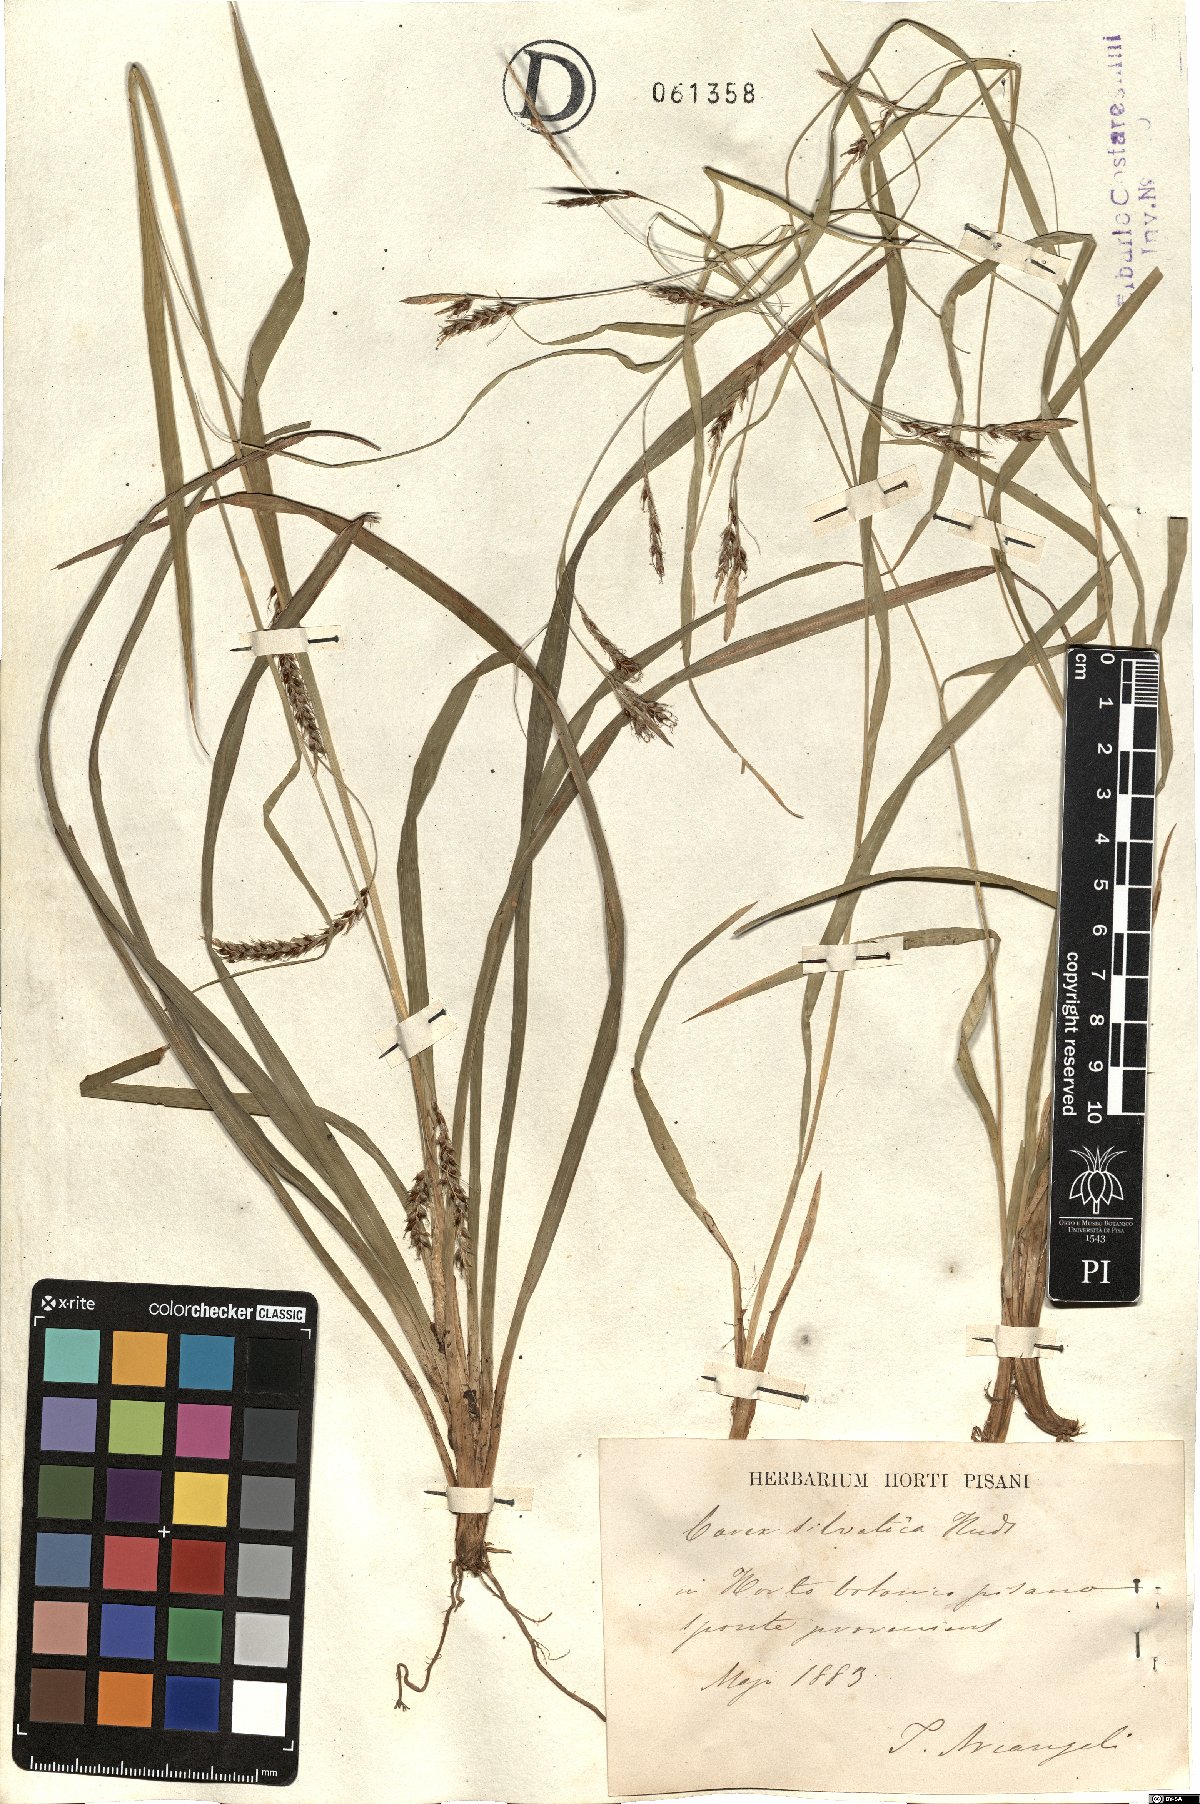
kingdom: Plantae
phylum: Tracheophyta
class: Liliopsida
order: Poales
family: Cyperaceae
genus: Carex
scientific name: Carex sylvatica
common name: Wood-sedge
